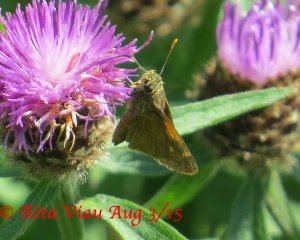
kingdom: Animalia
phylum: Arthropoda
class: Insecta
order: Lepidoptera
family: Hesperiidae
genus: Polites
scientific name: Polites themistocles
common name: Tawny-edged Skipper
